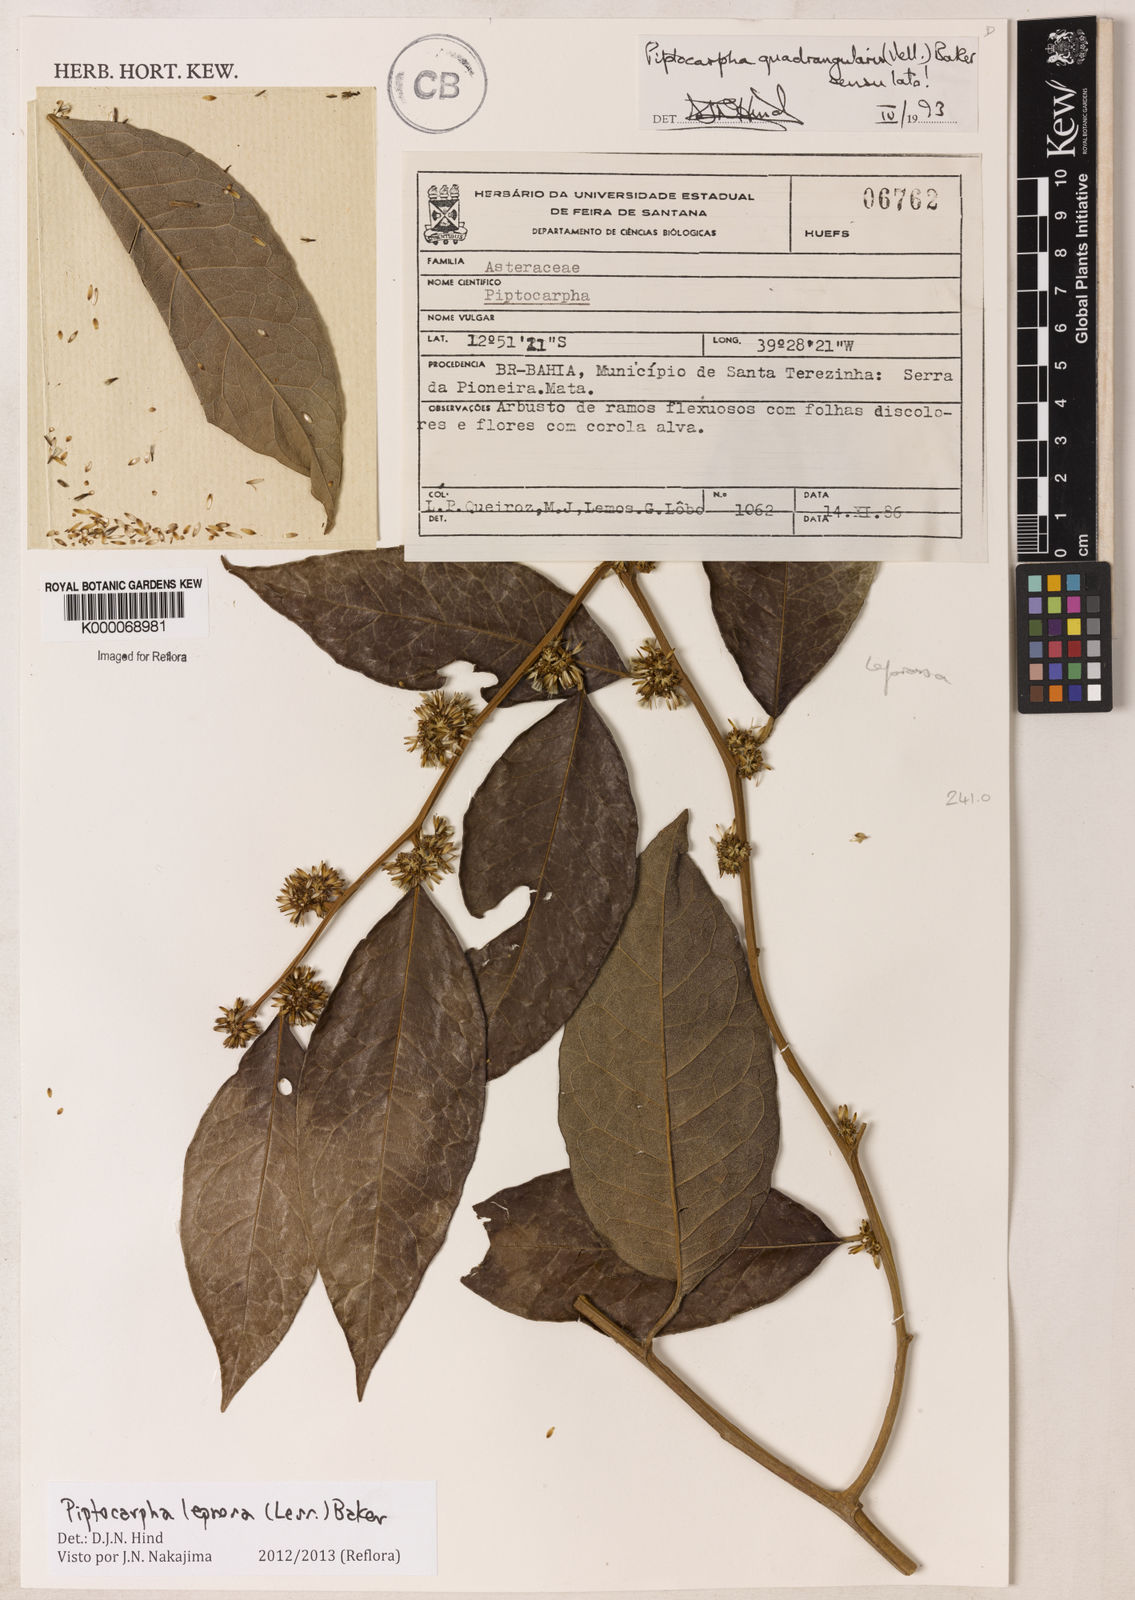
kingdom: Plantae
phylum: Tracheophyta
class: Magnoliopsida
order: Asterales
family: Asteraceae
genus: Piptocarpha
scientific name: Piptocarpha quadrangularis
